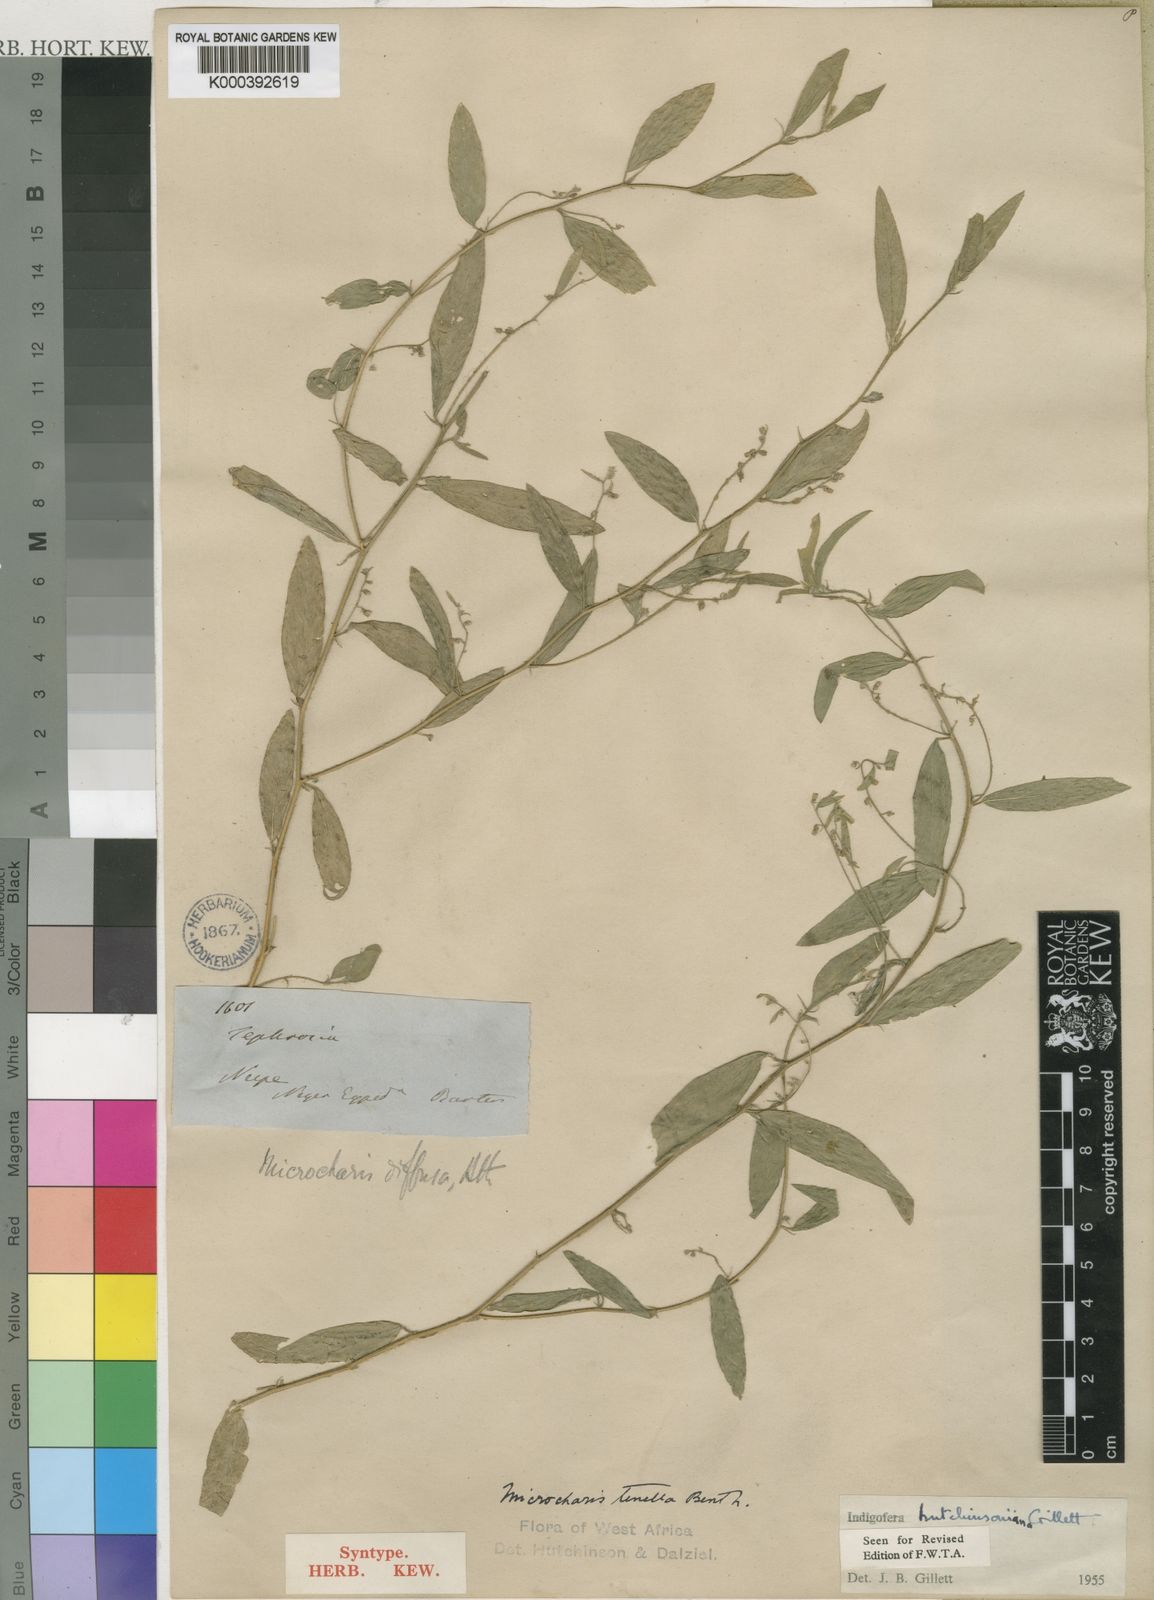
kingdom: Plantae
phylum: Tracheophyta
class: Magnoliopsida
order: Fabales
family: Fabaceae
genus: Microcharis
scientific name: Microcharis tenella
